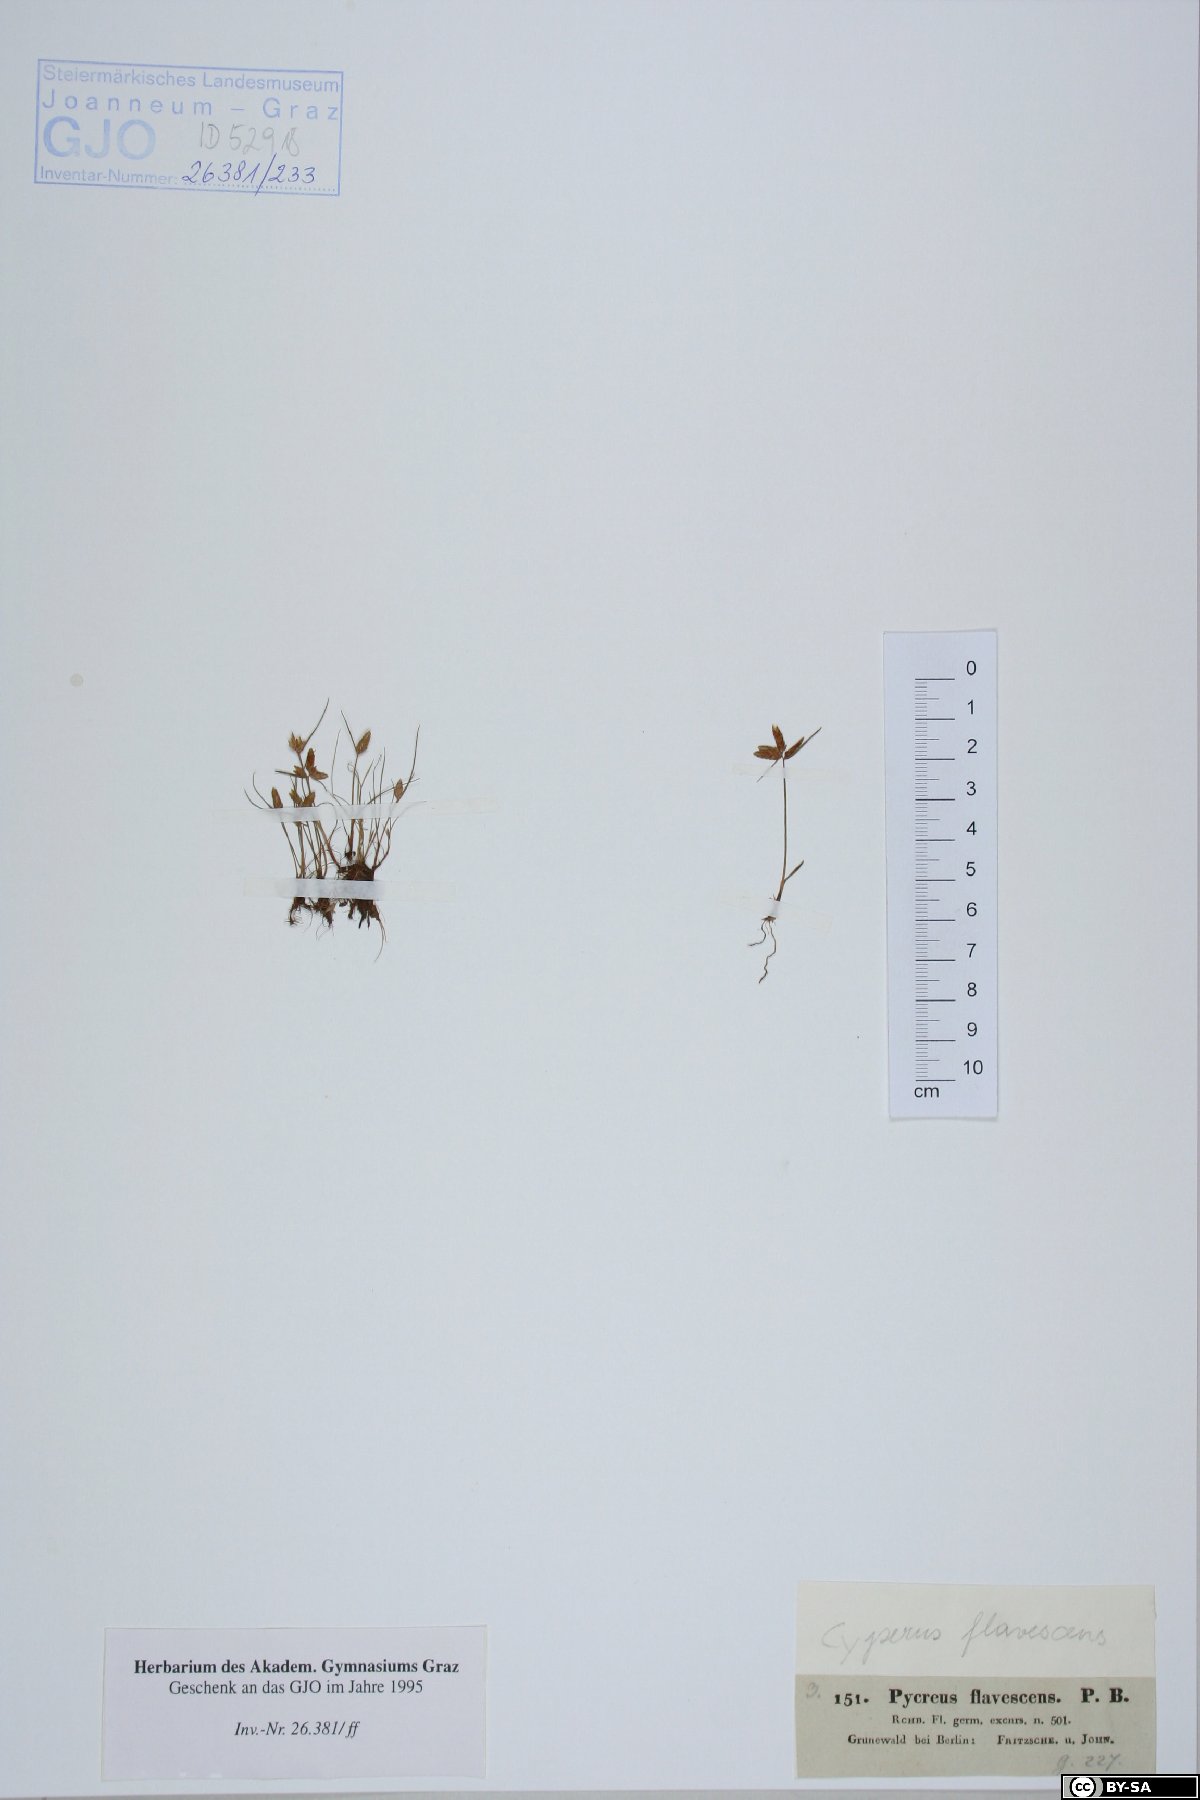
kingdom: Plantae
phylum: Tracheophyta
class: Liliopsida
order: Poales
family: Cyperaceae
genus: Cyperus
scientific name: Cyperus flavescens
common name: Yellow galingale
